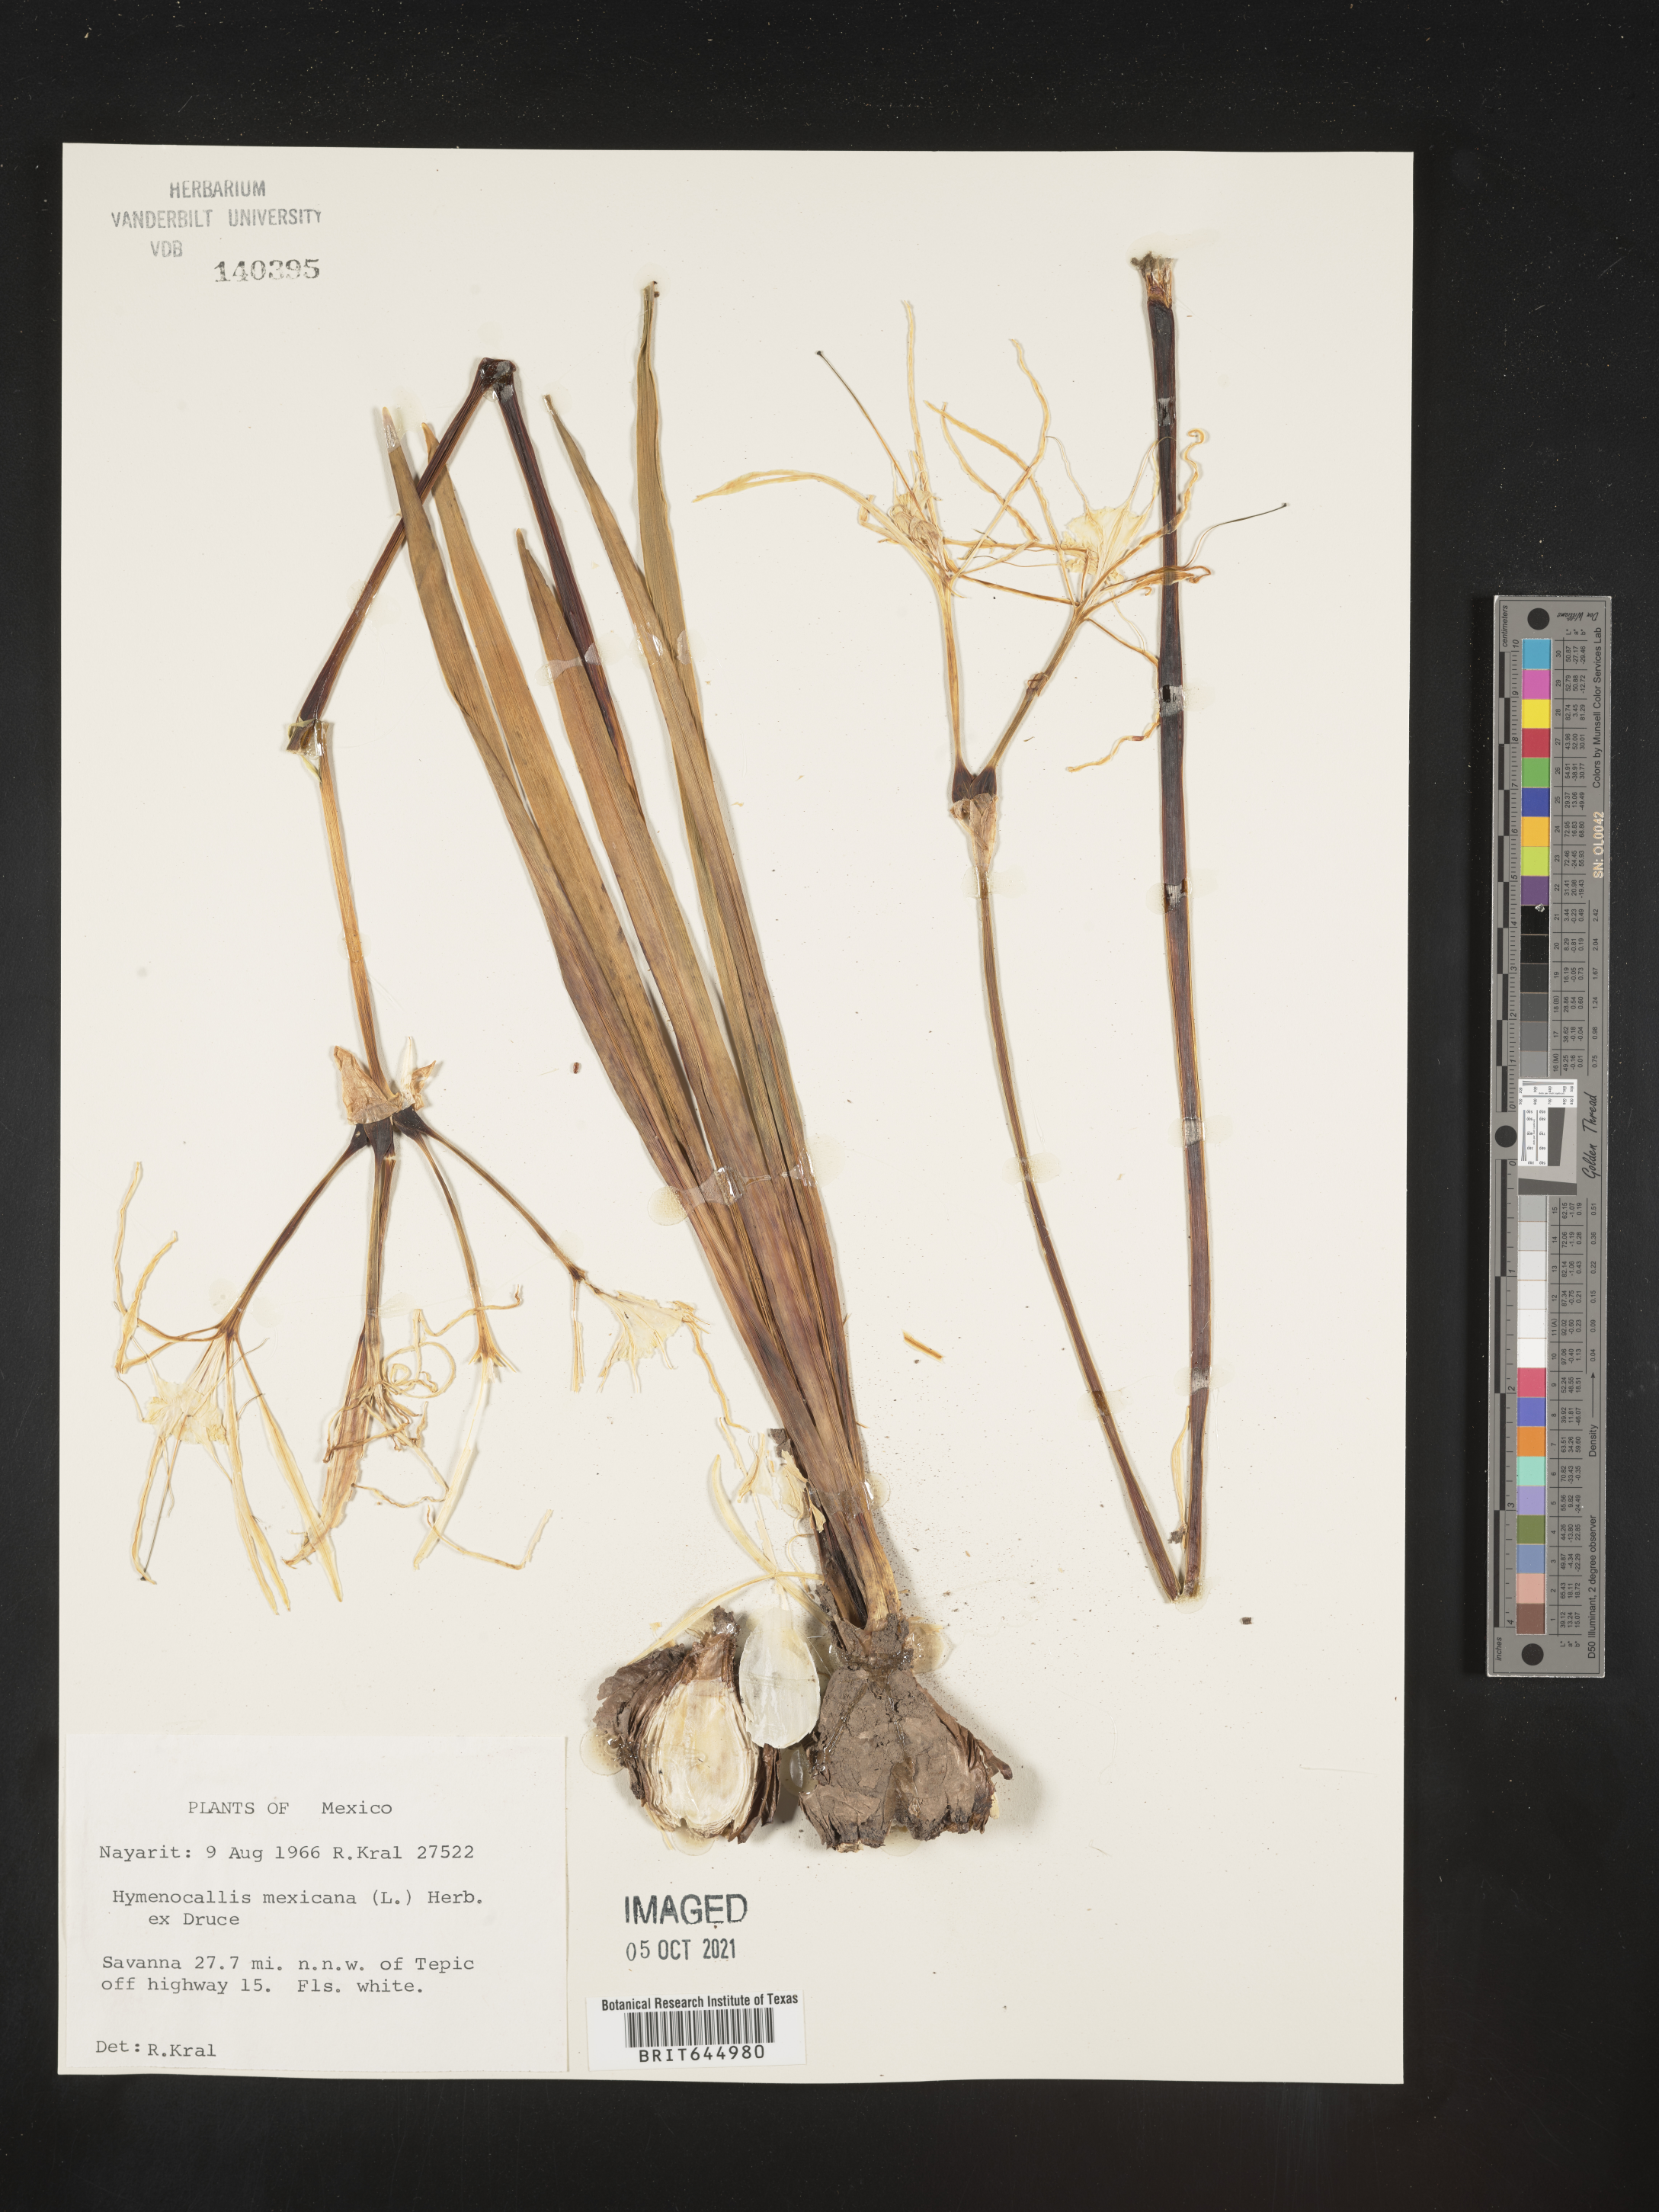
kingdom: Plantae
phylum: Tracheophyta
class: Liliopsida
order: Asparagales
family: Amaryllidaceae
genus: Hymenocallis
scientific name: Hymenocallis
